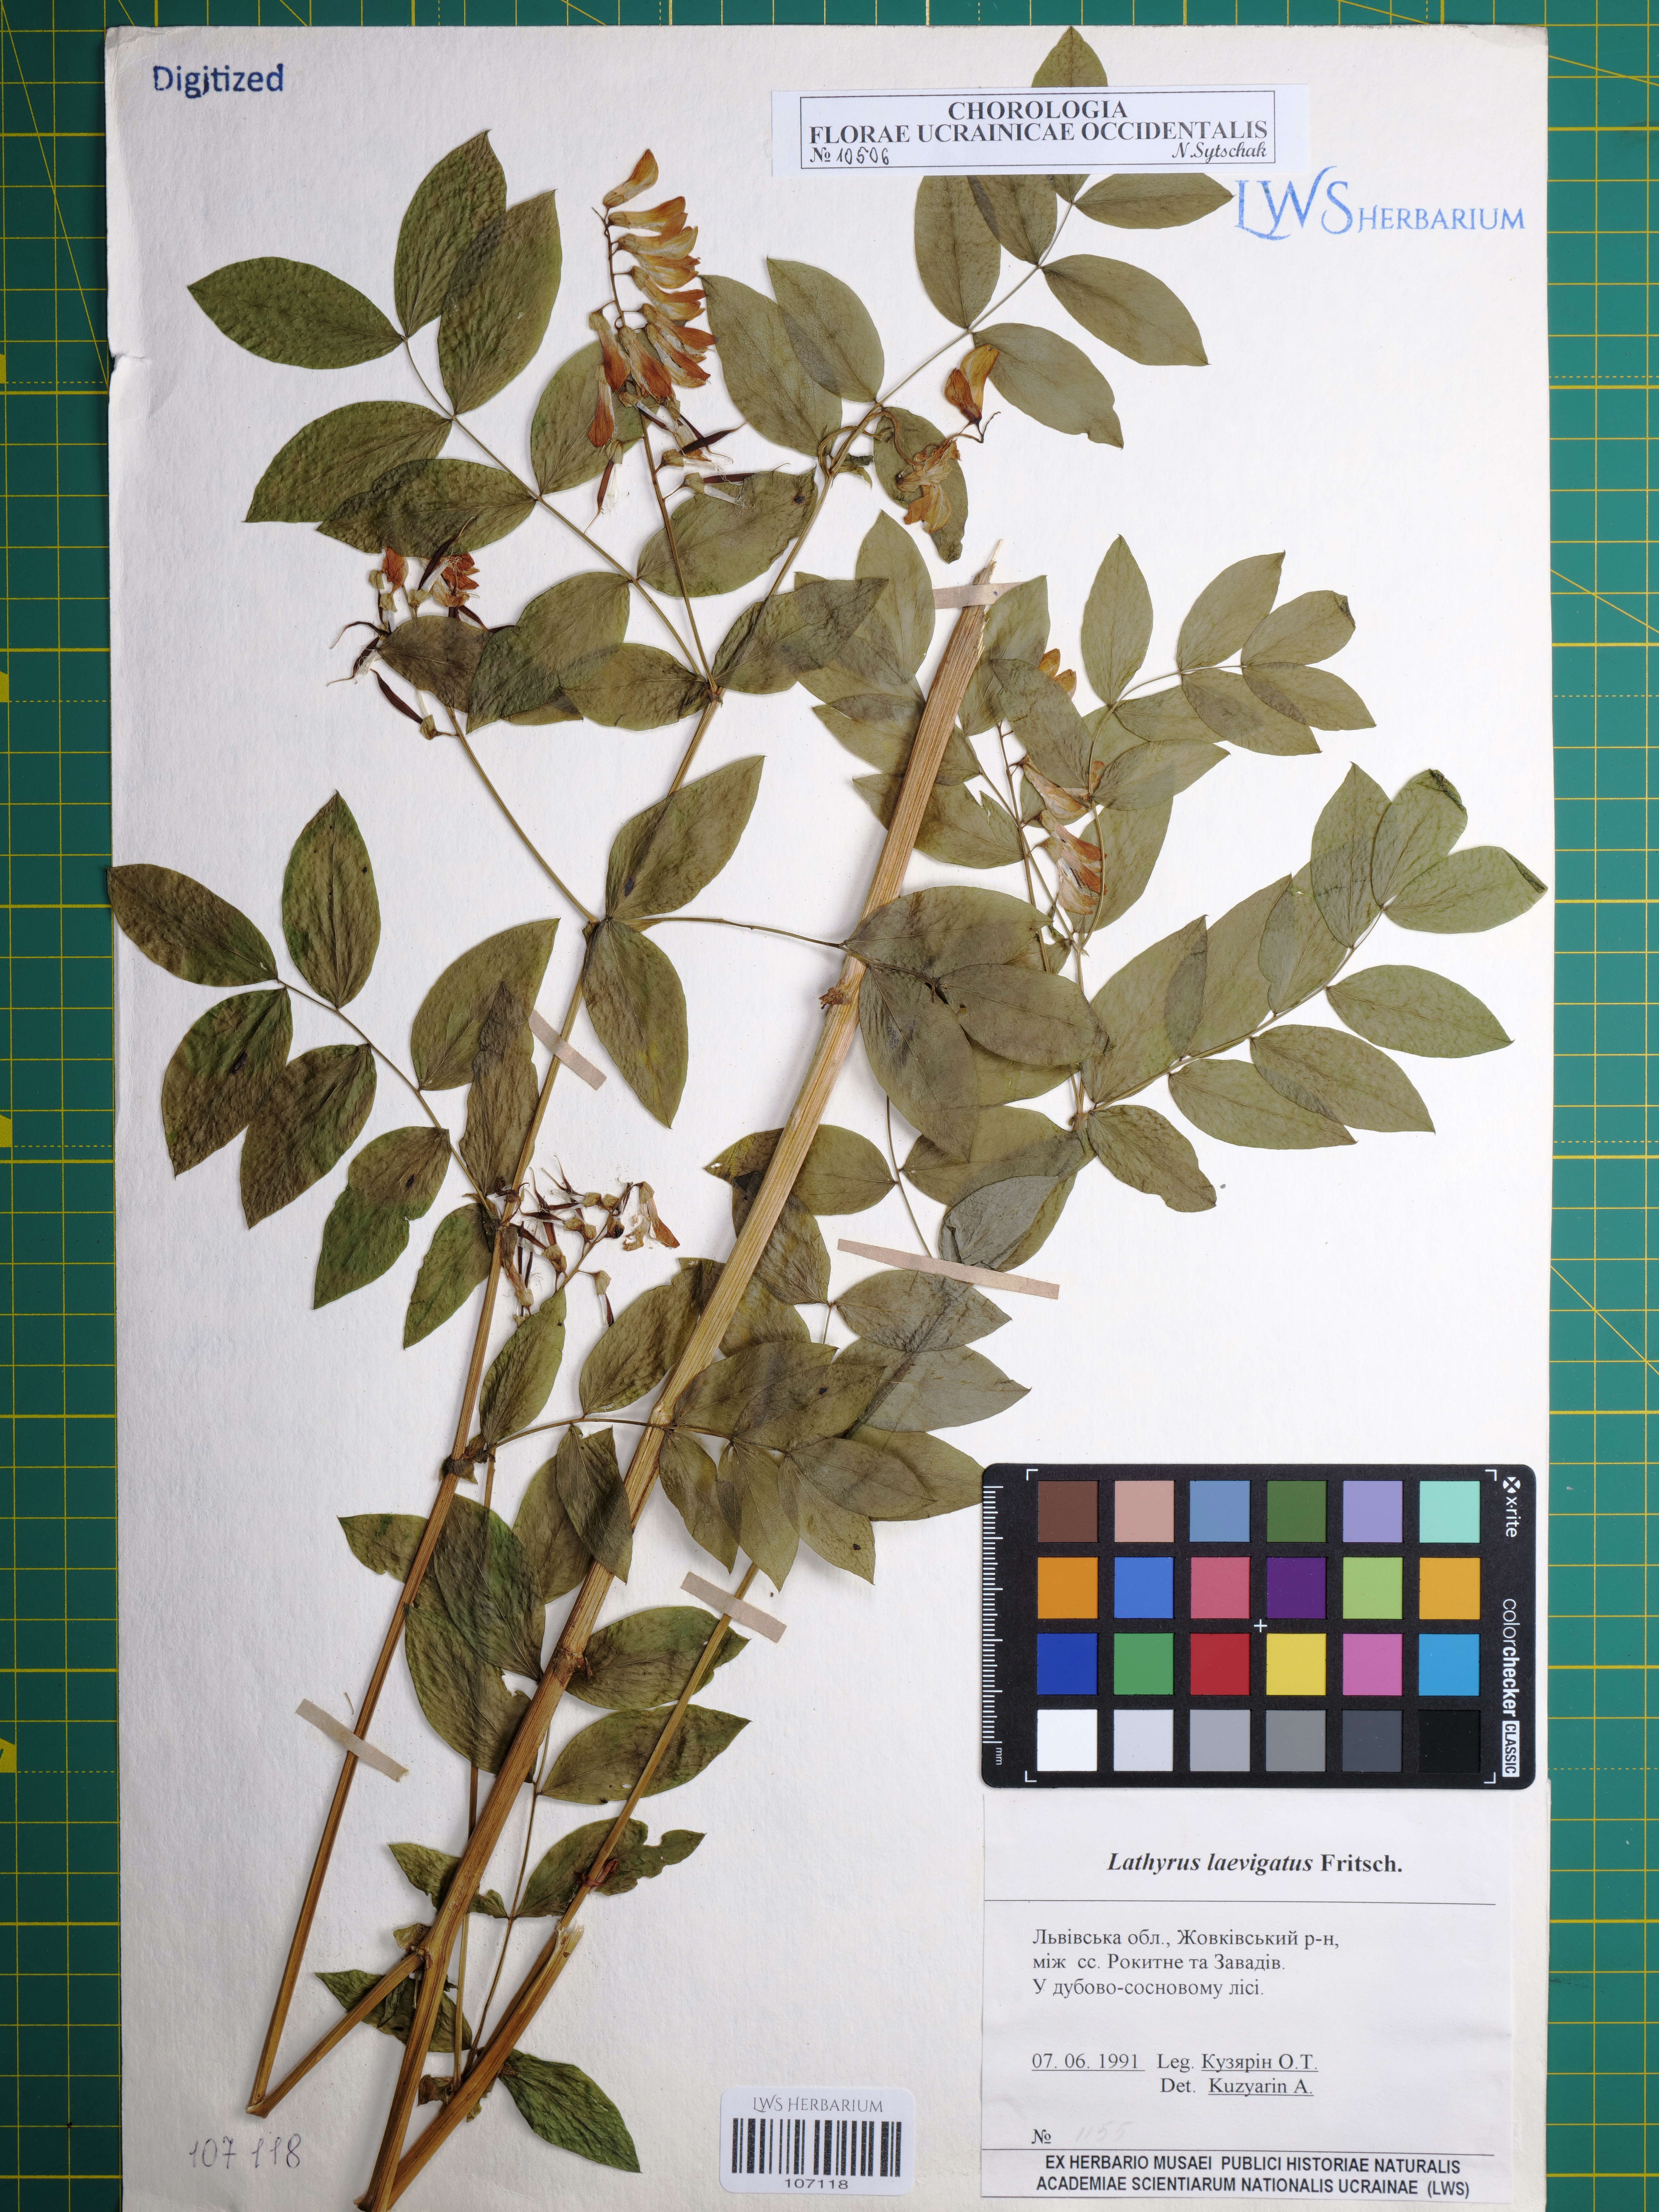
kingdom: Plantae
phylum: Tracheophyta
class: Magnoliopsida
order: Fabales
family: Fabaceae
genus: Lathyrus
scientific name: Lathyrus laevigatus
